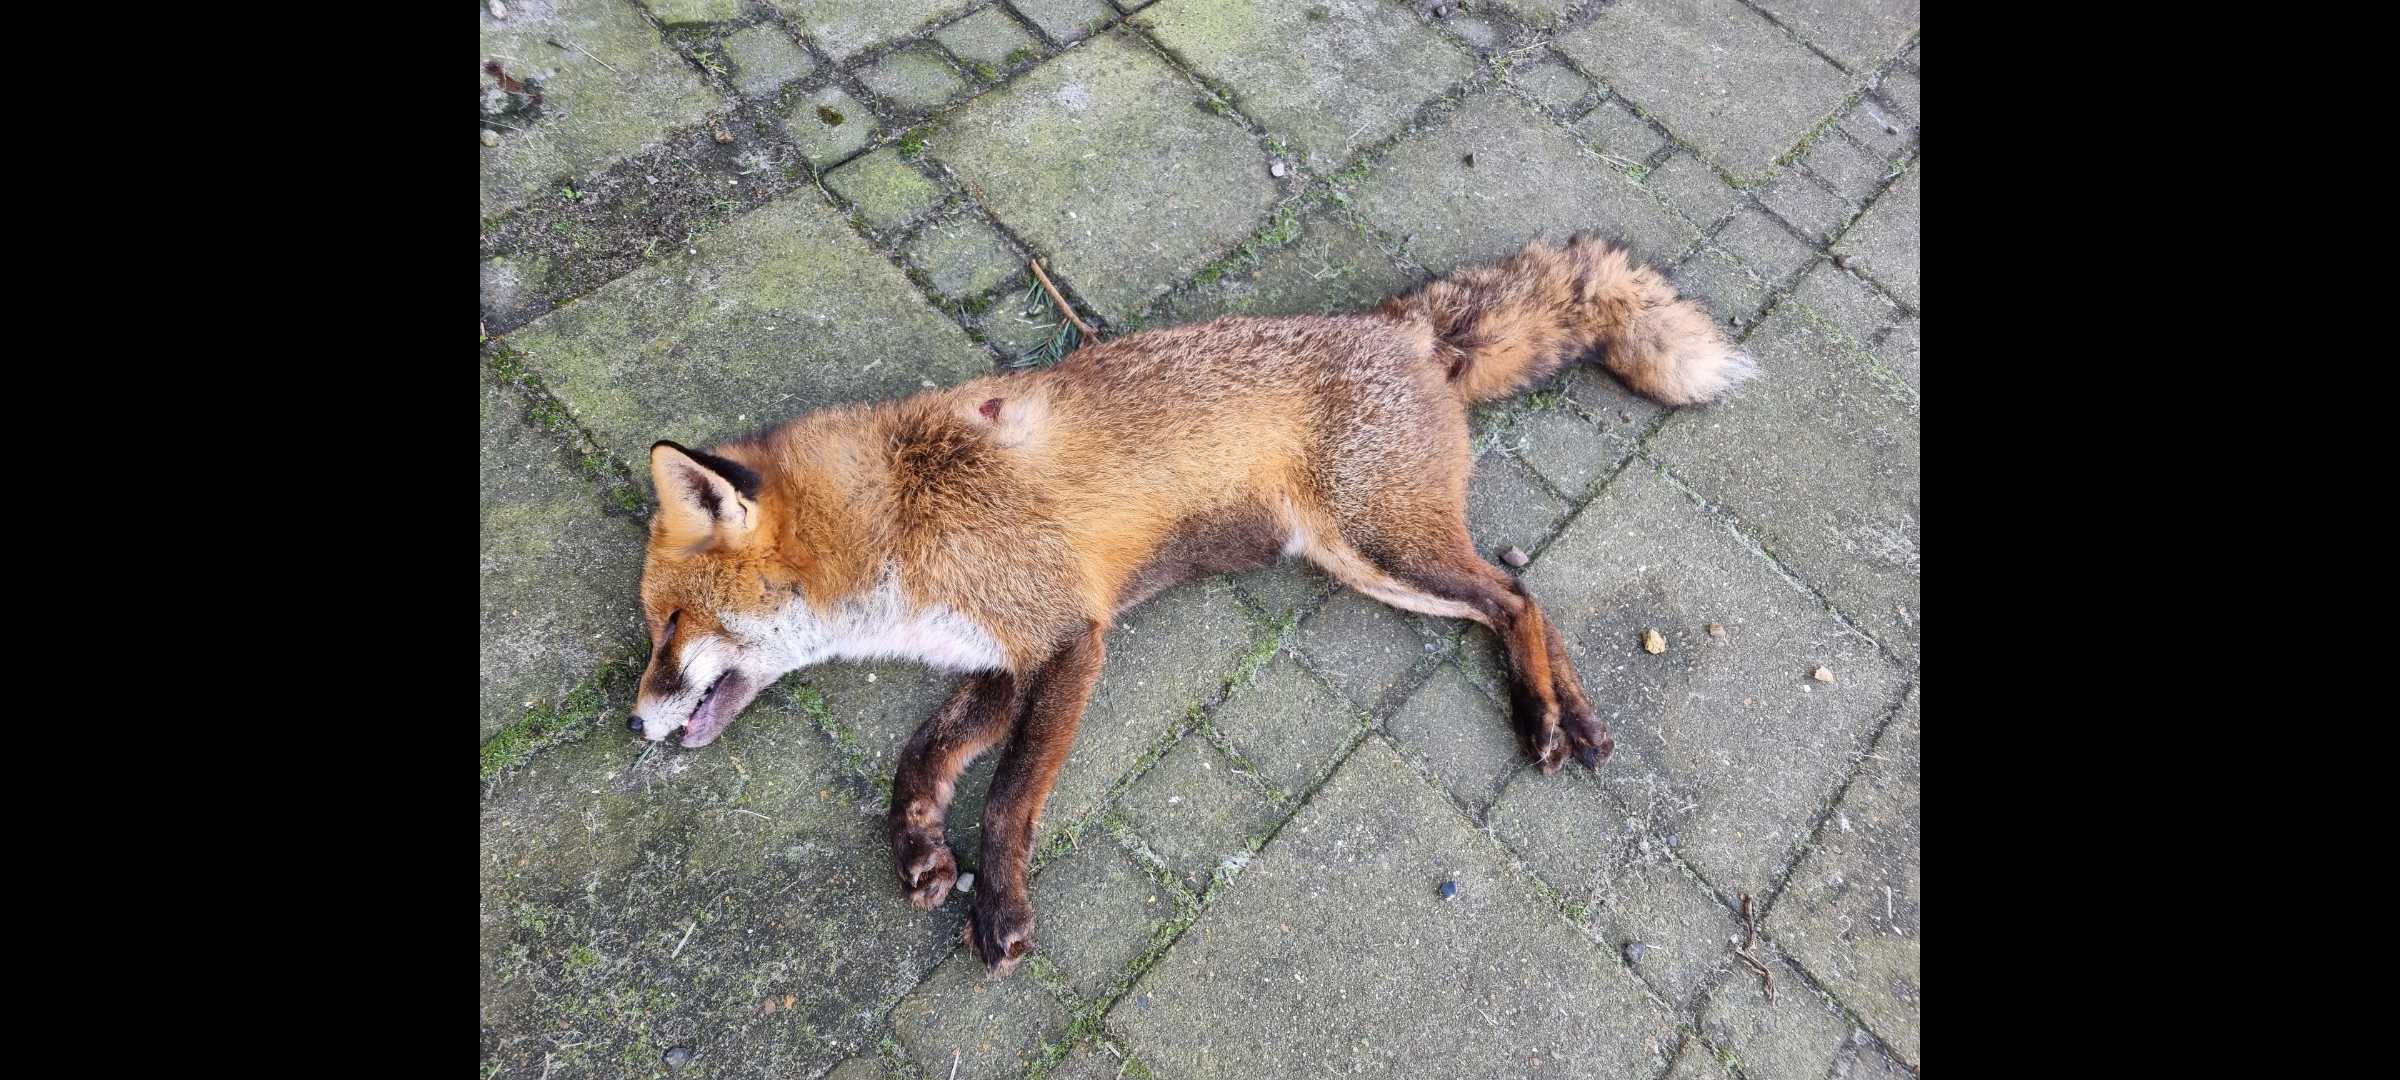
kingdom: Animalia
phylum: Chordata
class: Mammalia
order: Carnivora
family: Canidae
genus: Vulpes
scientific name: Vulpes vulpes
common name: Ræv
